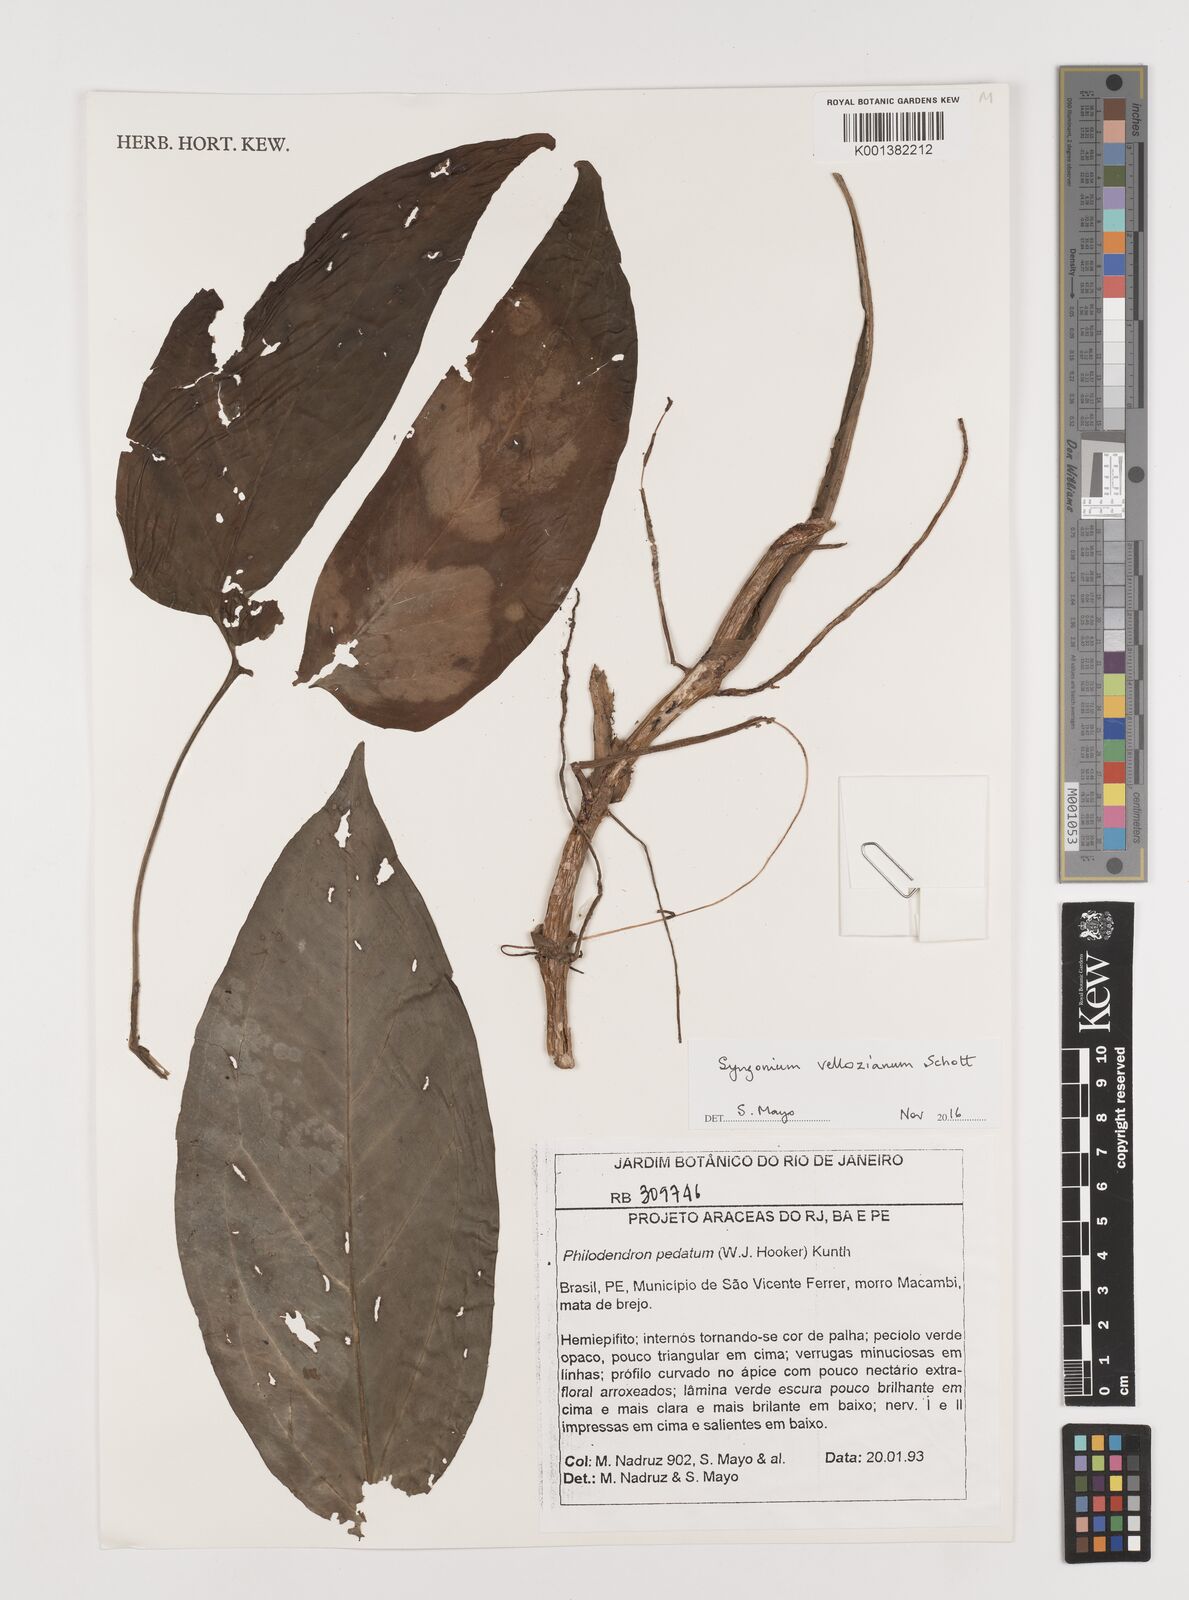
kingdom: Plantae
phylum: Tracheophyta
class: Liliopsida
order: Alismatales
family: Araceae
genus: Syngonium
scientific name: Syngonium podophyllum
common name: American evergreen
